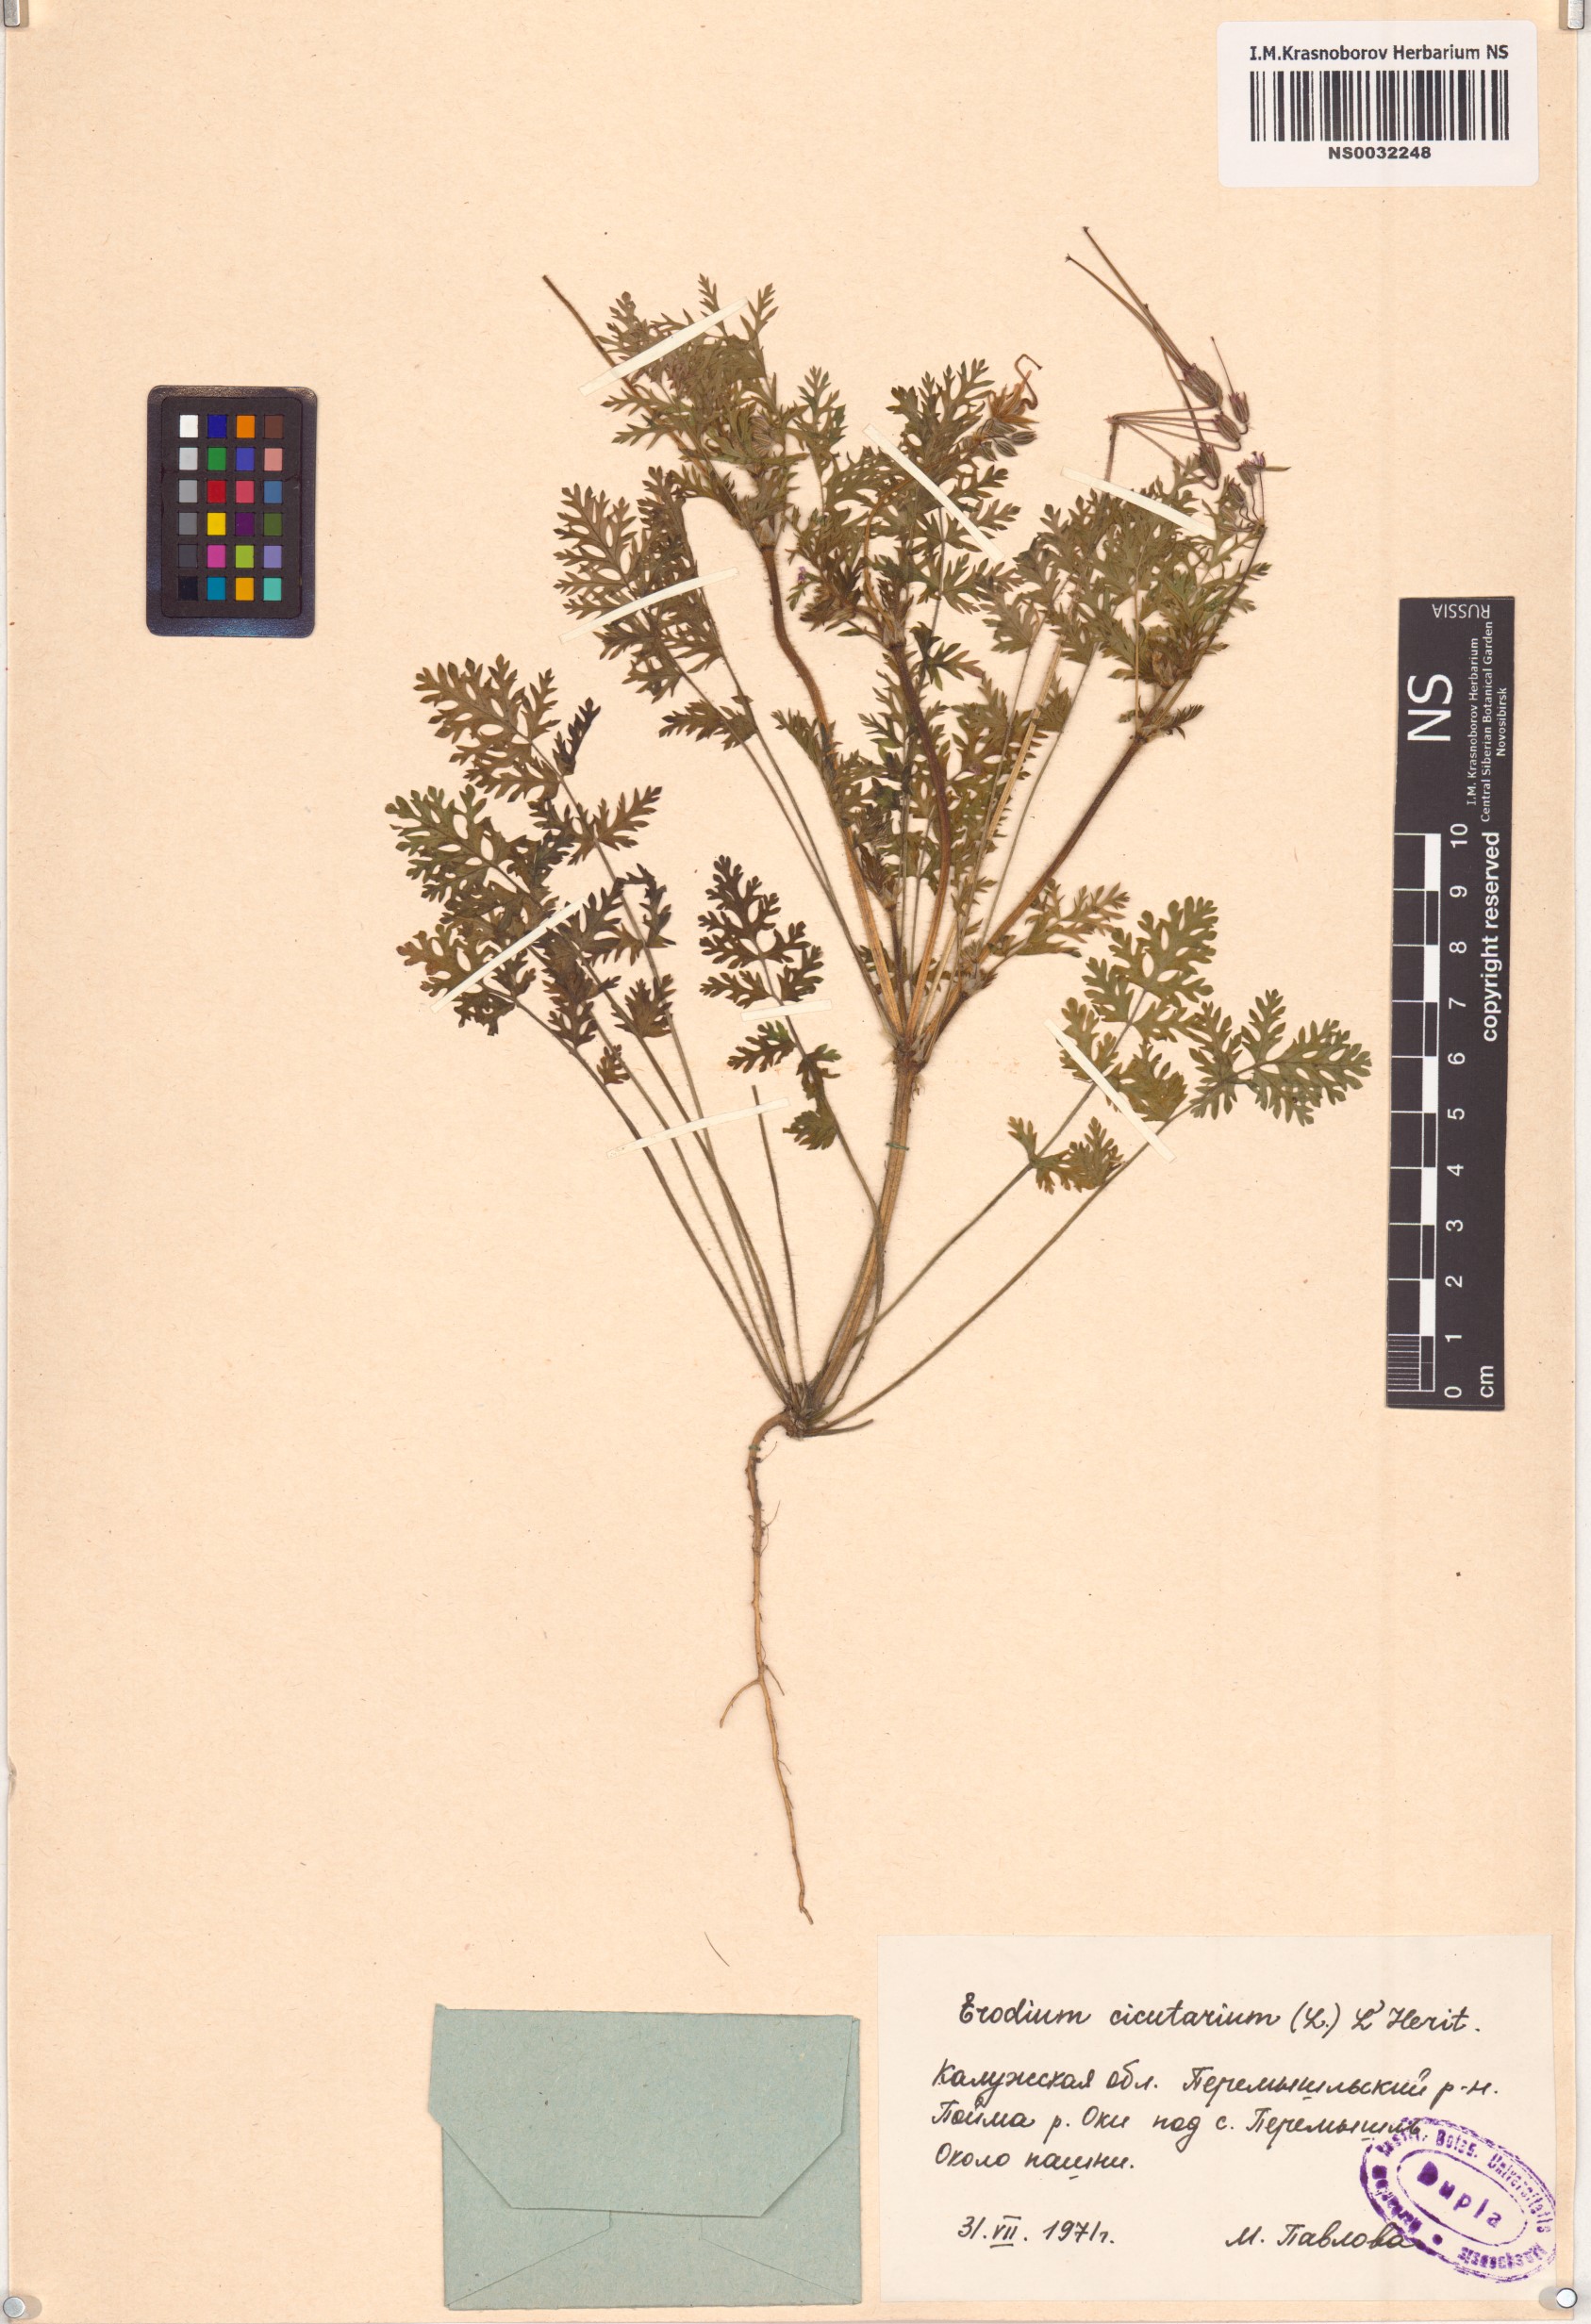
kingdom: Plantae
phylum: Tracheophyta
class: Magnoliopsida
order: Geraniales
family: Geraniaceae
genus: Erodium
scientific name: Erodium cicutarium
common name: Common stork's-bill
